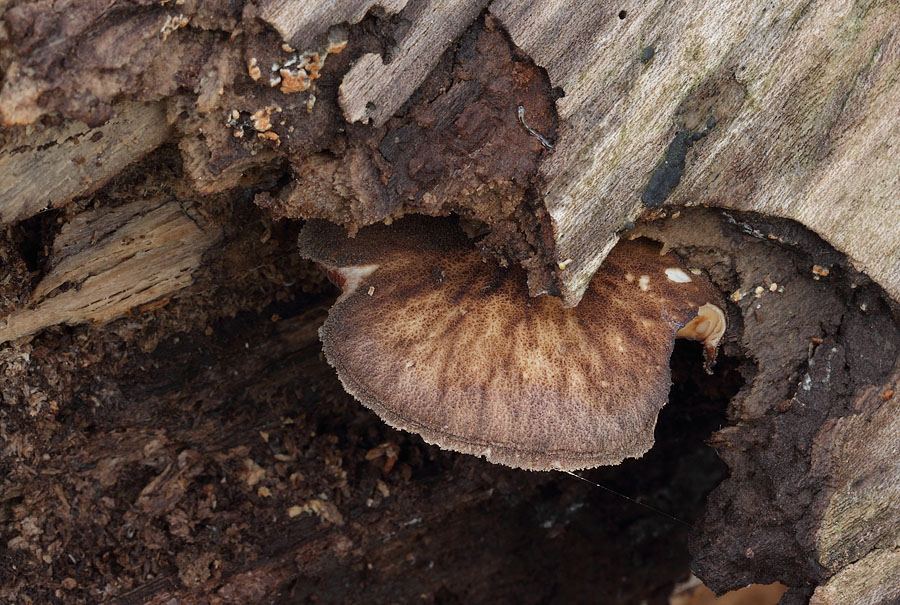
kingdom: Fungi
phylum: Basidiomycota
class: Agaricomycetes
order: Agaricales
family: Pluteaceae
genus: Pluteus
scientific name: Pluteus umbrosus
